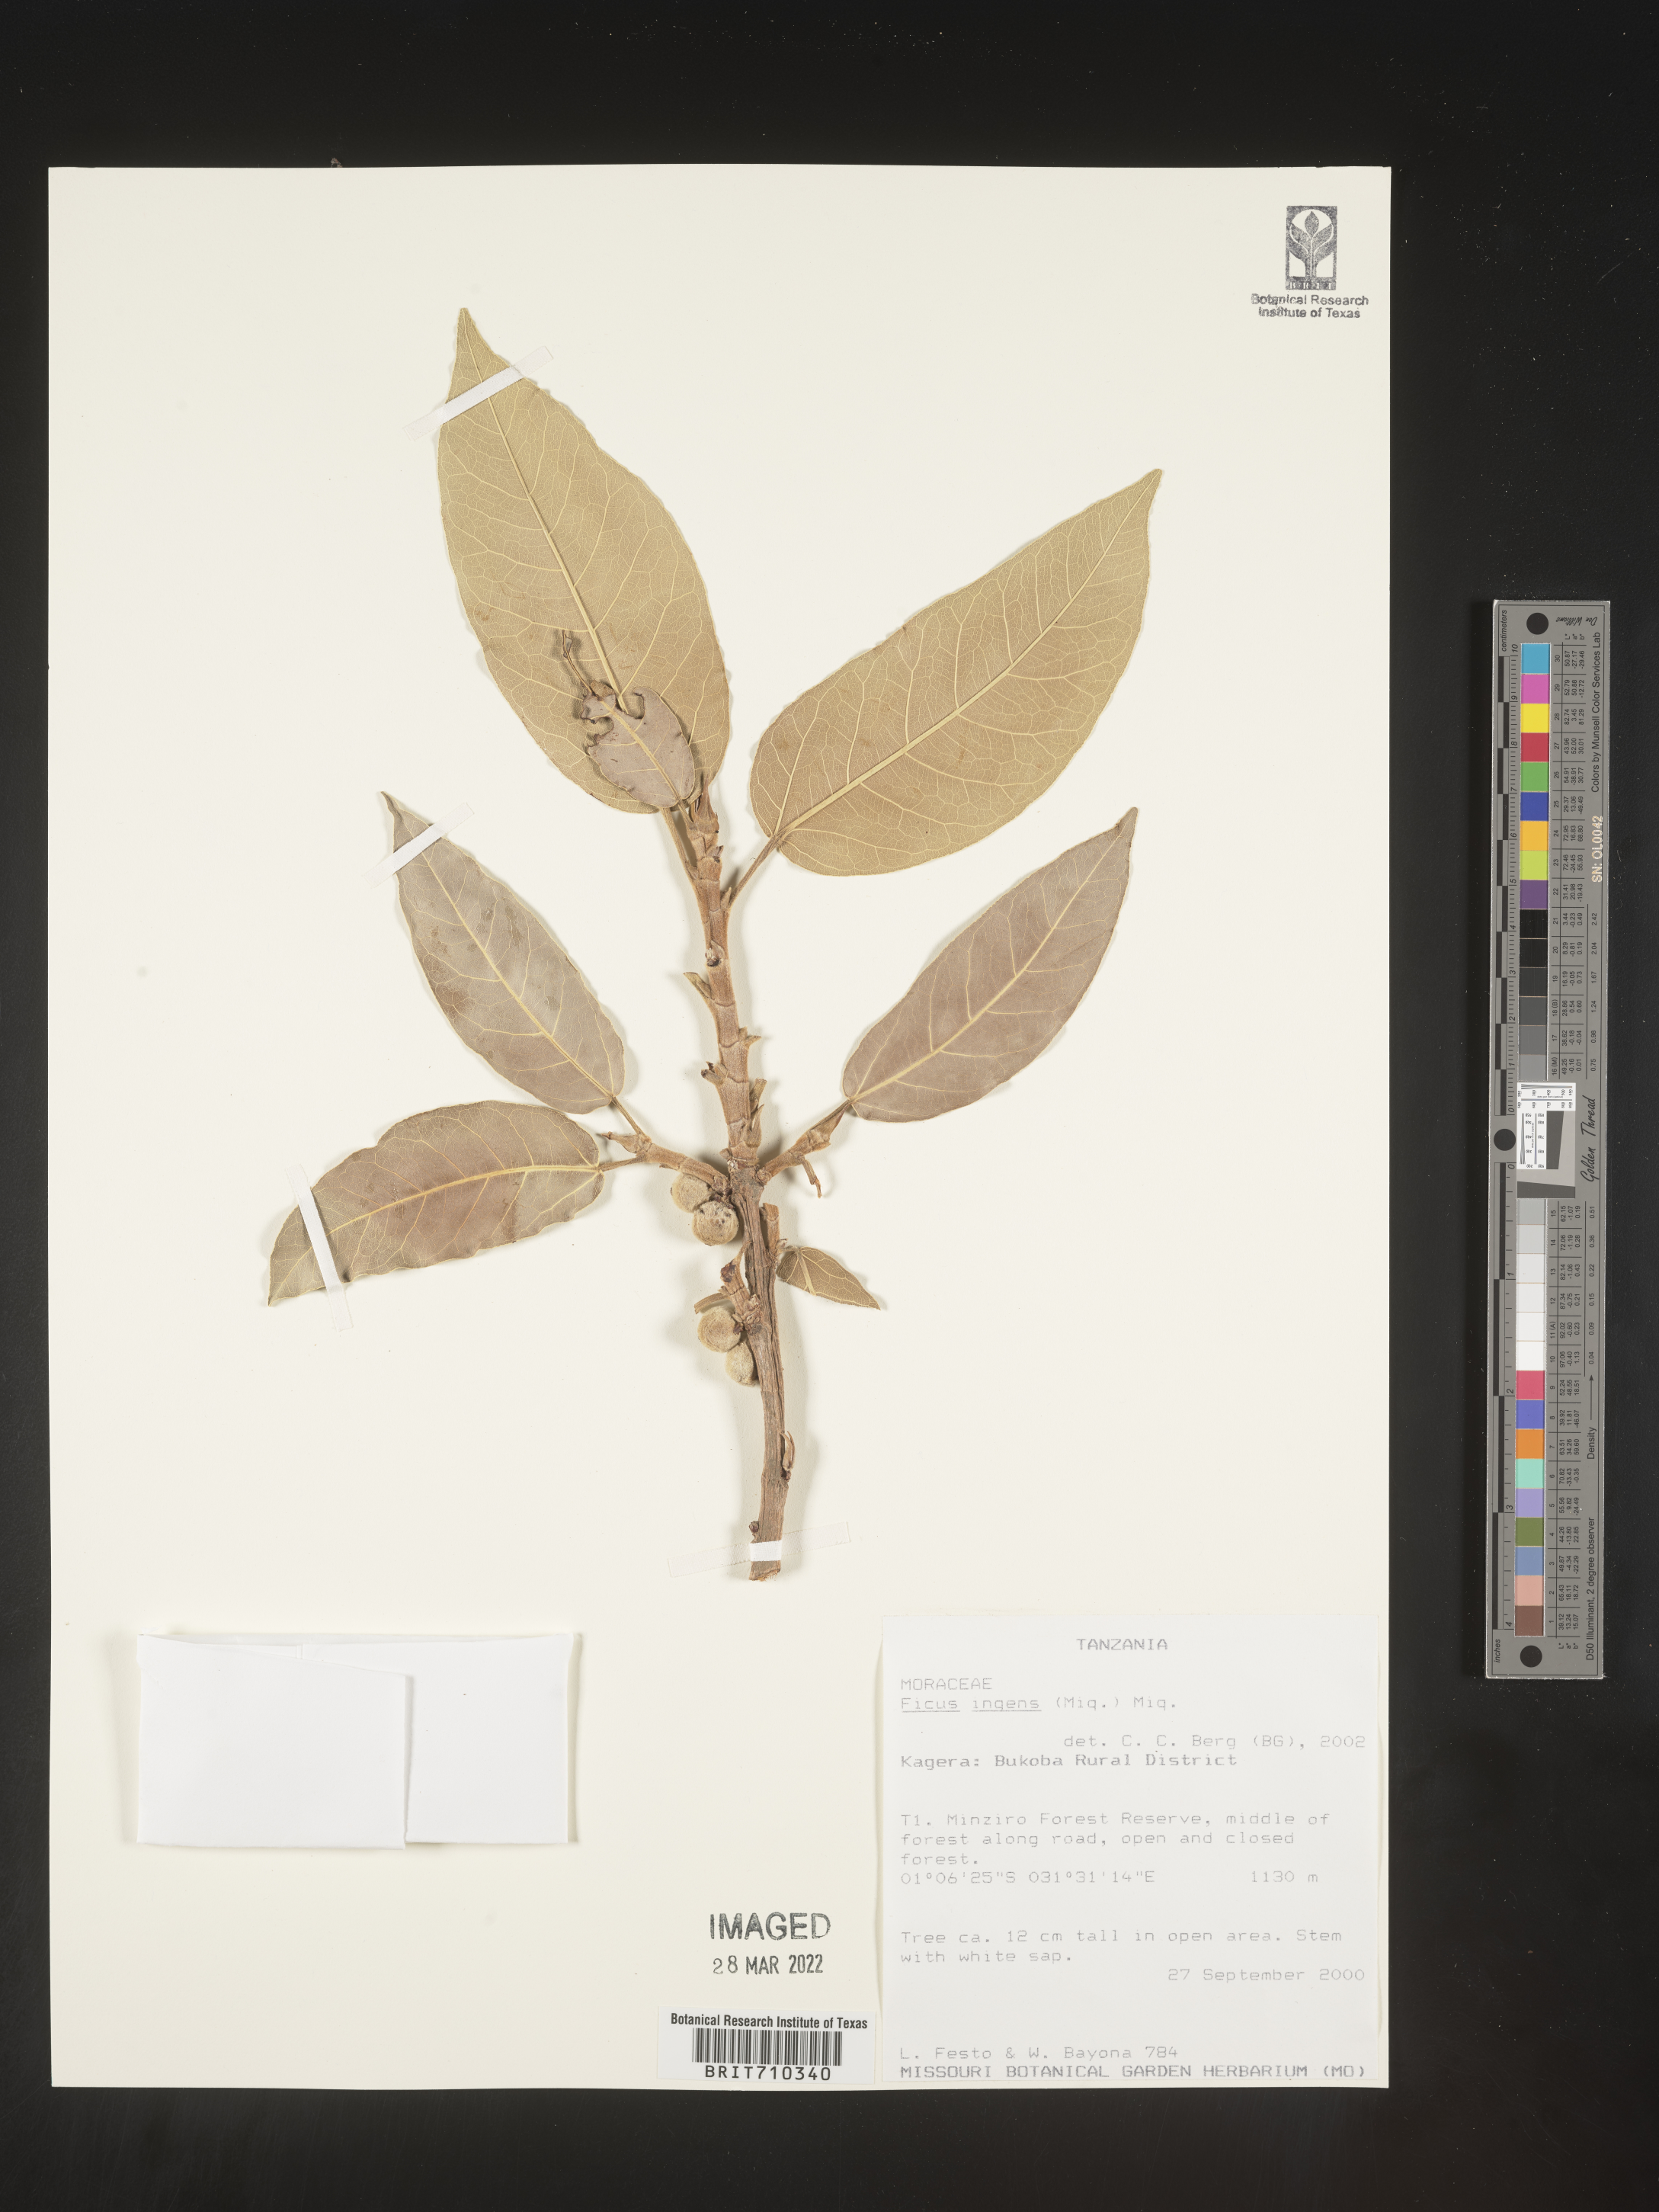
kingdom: Plantae
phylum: Tracheophyta
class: Magnoliopsida
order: Rosales
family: Moraceae
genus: Ficus
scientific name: Ficus
